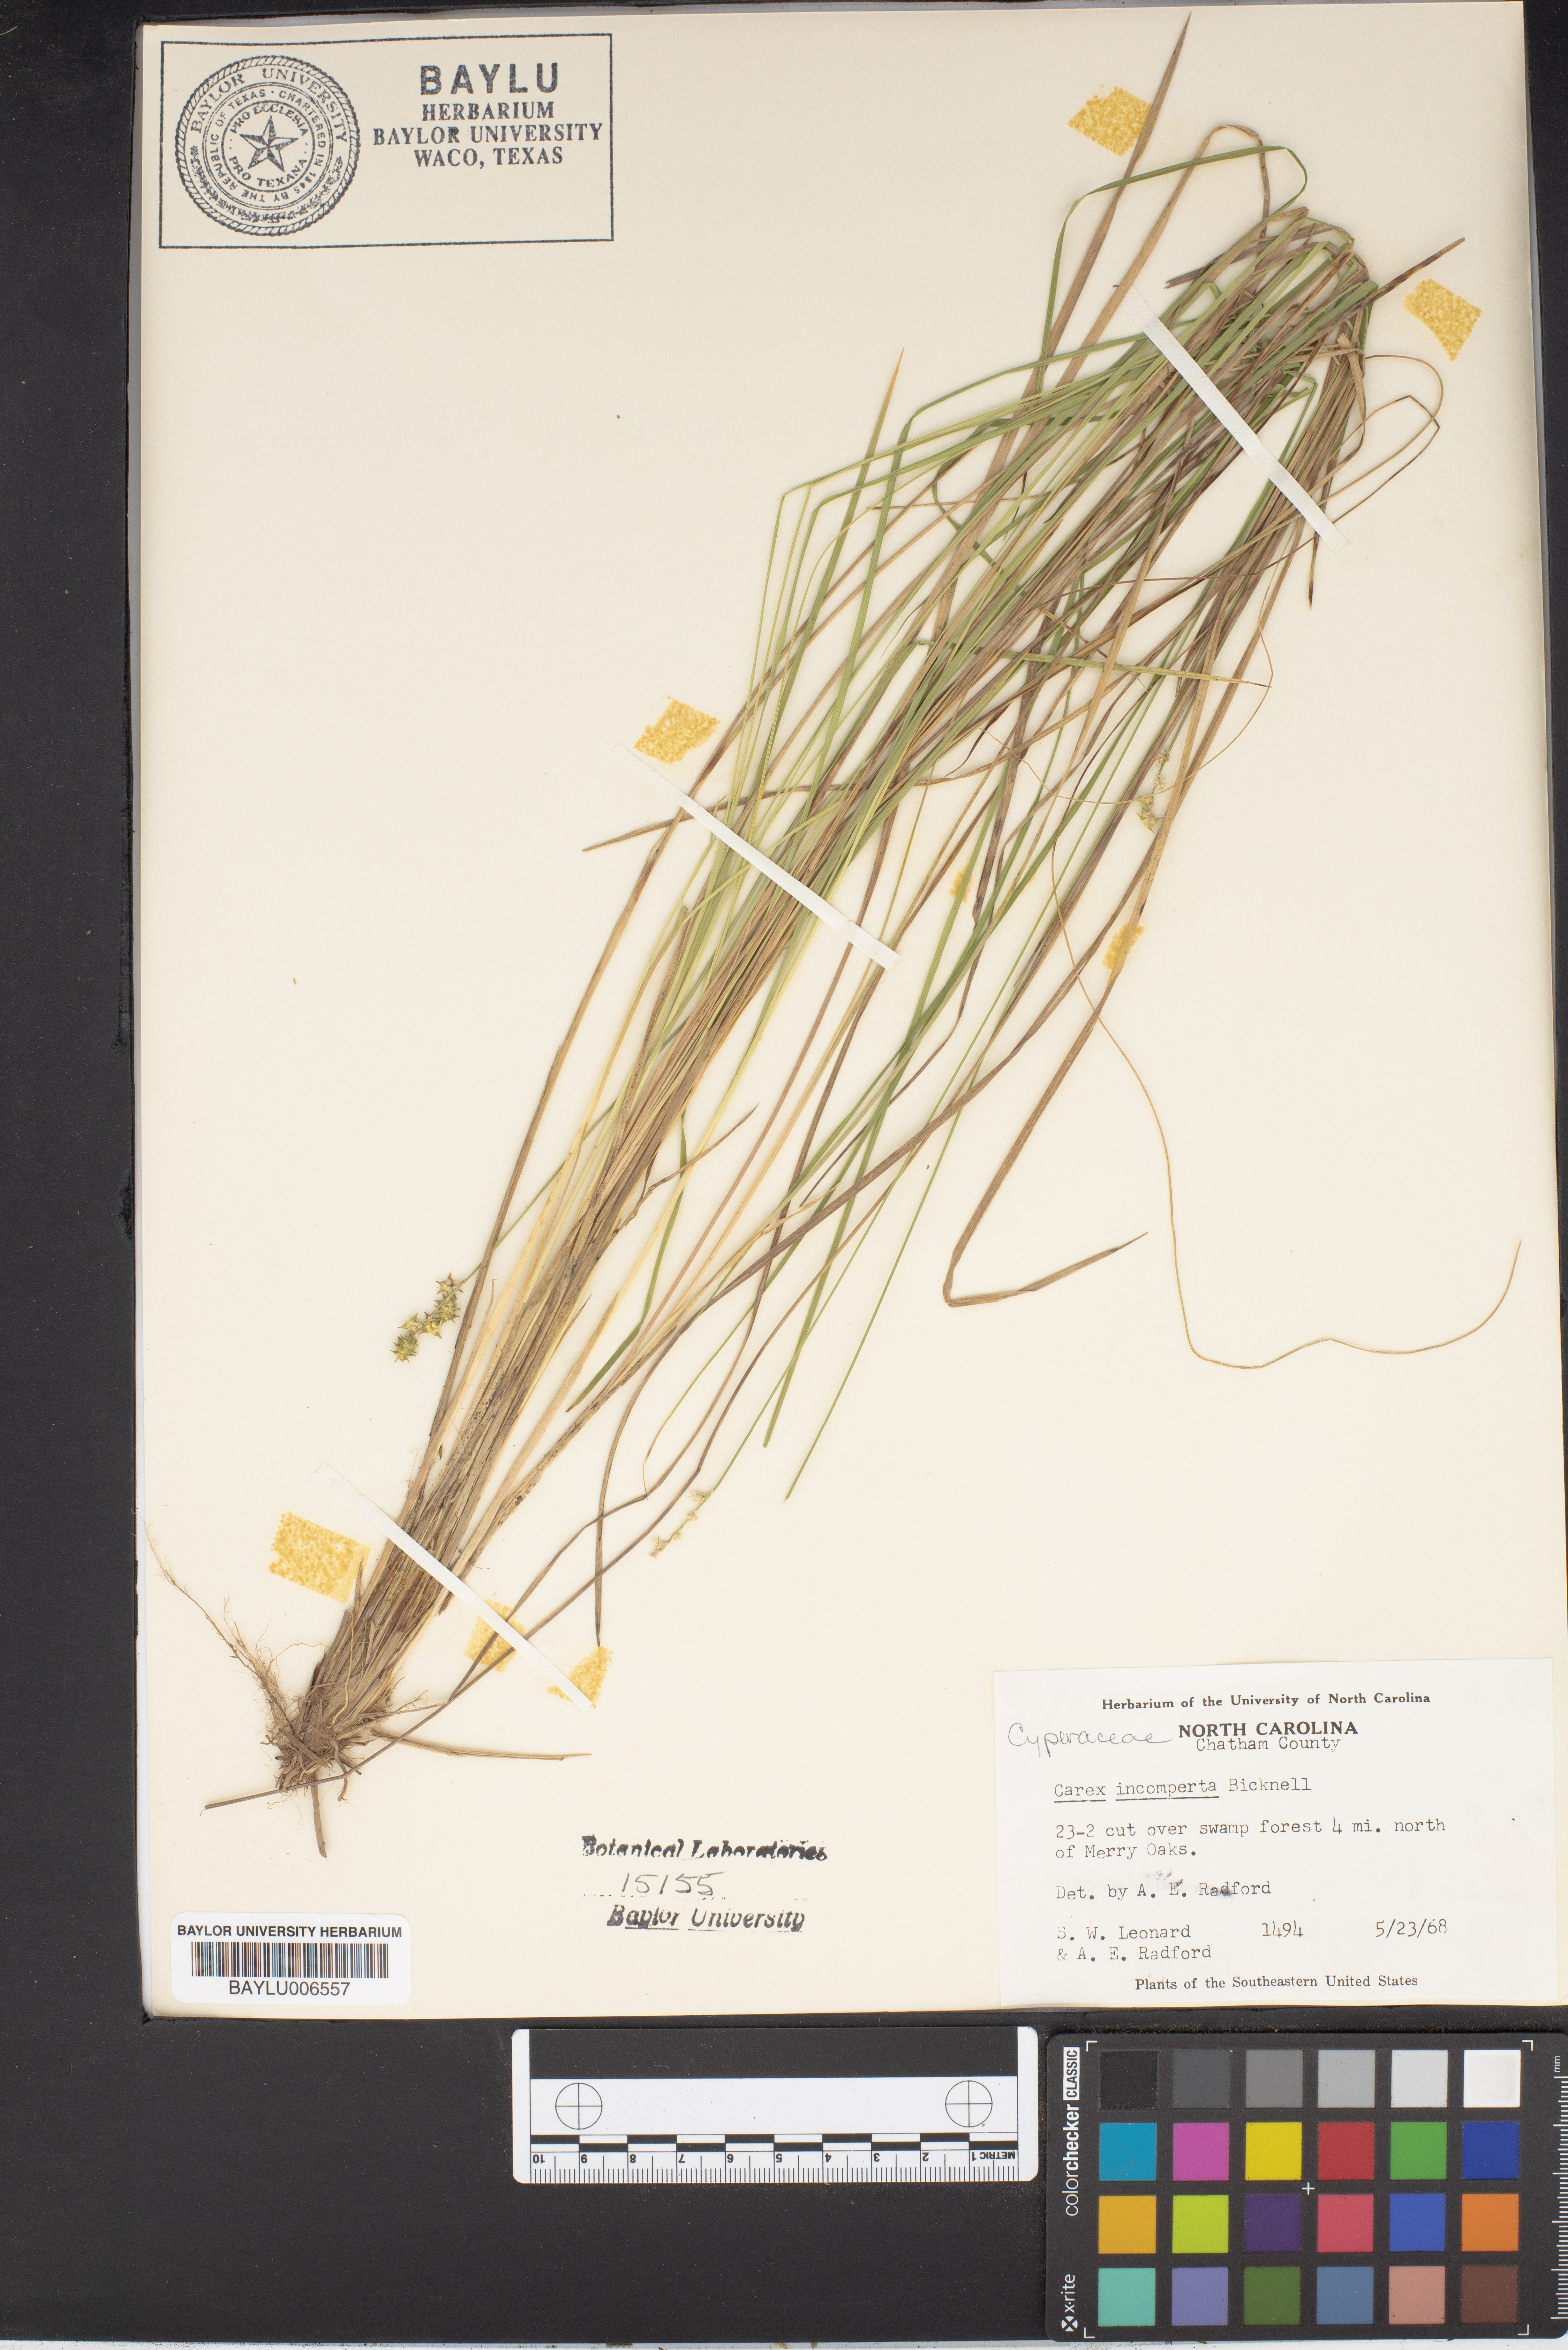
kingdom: Plantae
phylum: Tracheophyta
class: Liliopsida
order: Poales
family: Cyperaceae
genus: Carex
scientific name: Carex atlantica
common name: Atlantic sedge
